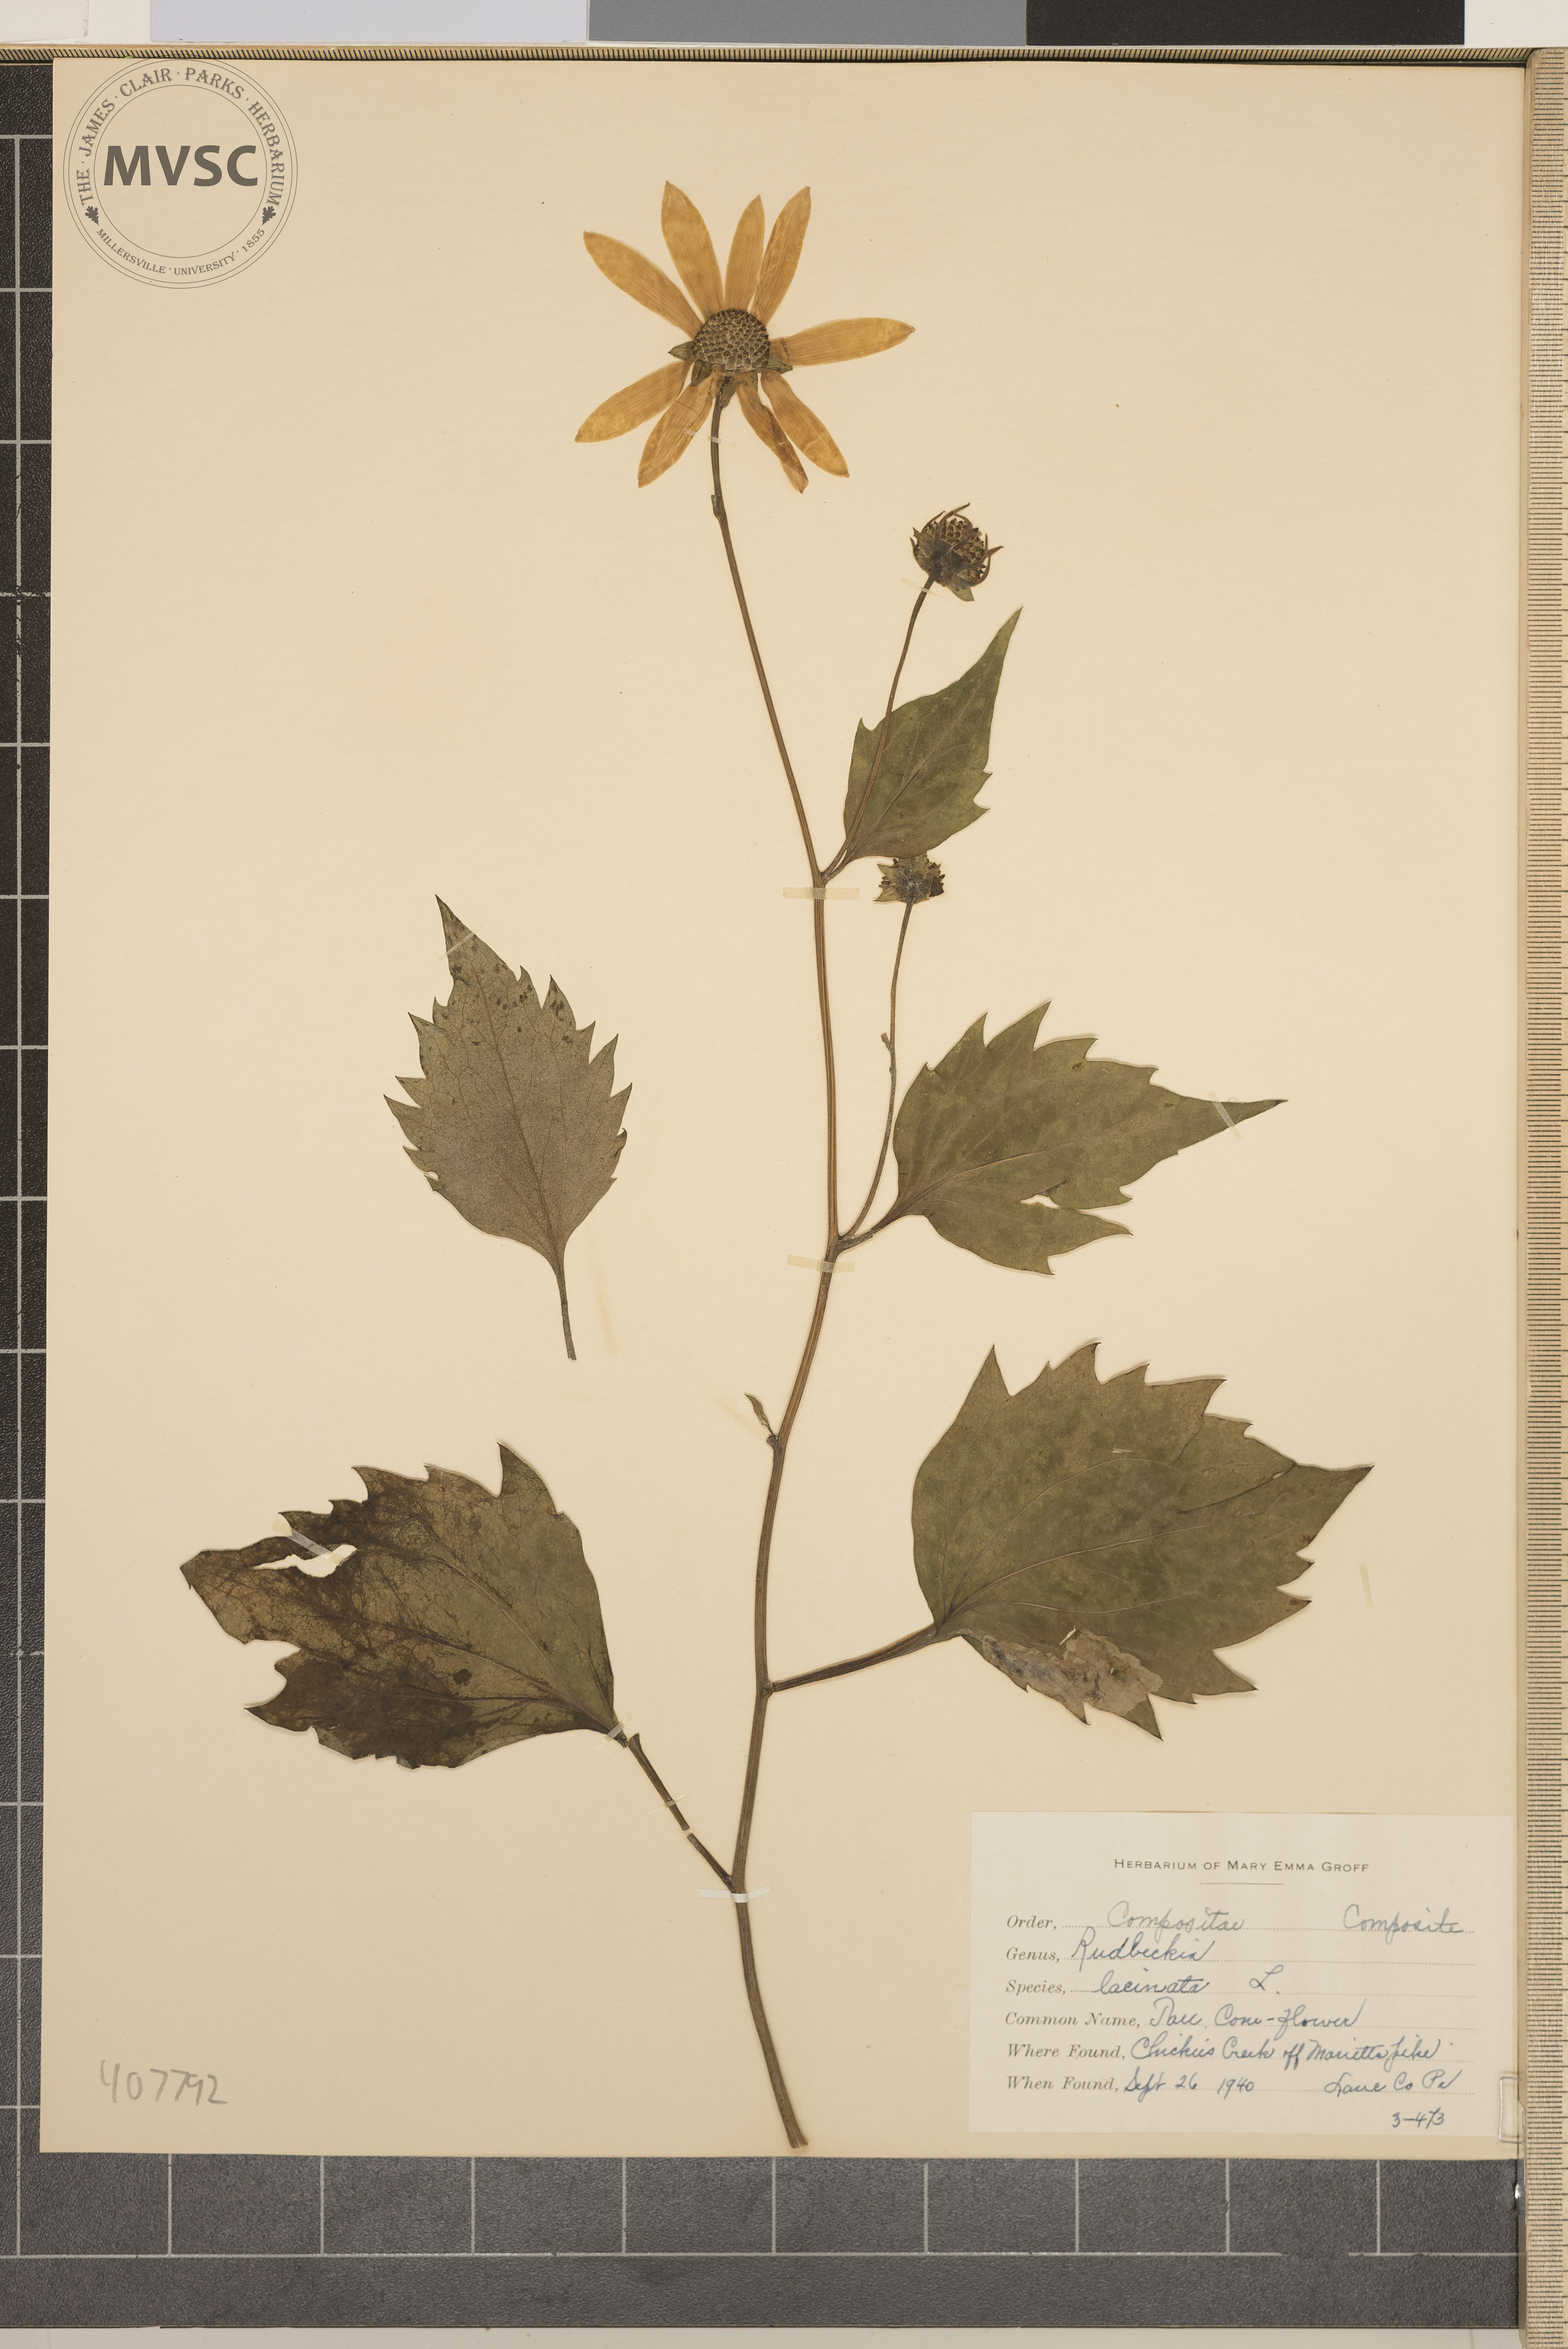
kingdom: Plantae
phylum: Tracheophyta
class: Magnoliopsida
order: Asterales
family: Asteraceae
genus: Rudbeckia
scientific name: Rudbeckia laciniata
